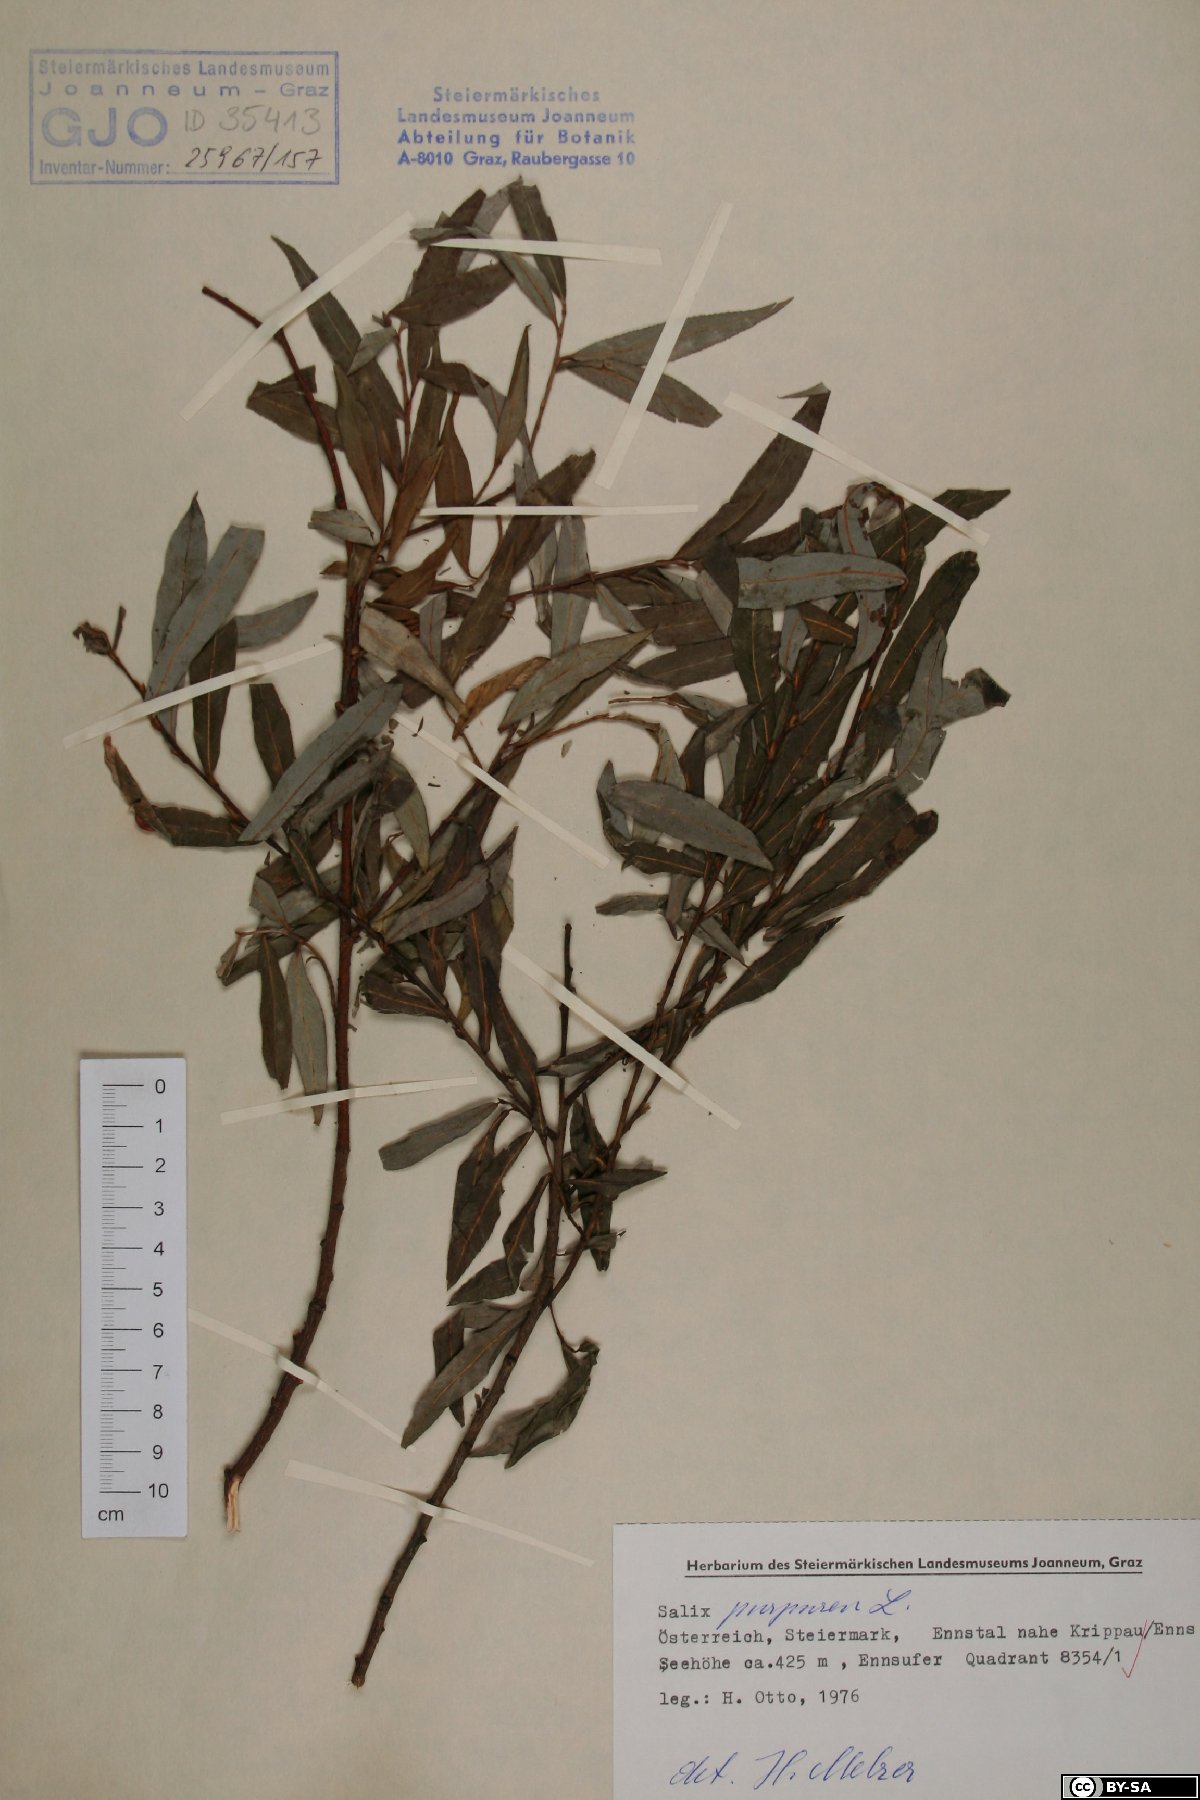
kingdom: Plantae
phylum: Tracheophyta
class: Magnoliopsida
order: Malpighiales
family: Salicaceae
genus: Salix
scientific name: Salix purpurea
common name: Purple willow
